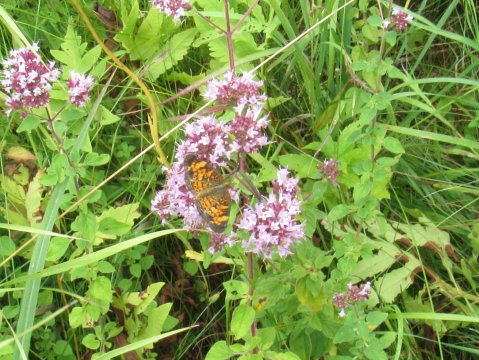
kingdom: Animalia
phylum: Arthropoda
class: Insecta
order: Lepidoptera
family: Nymphalidae
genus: Phyciodes
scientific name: Phyciodes tharos
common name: Pearl Crescent
